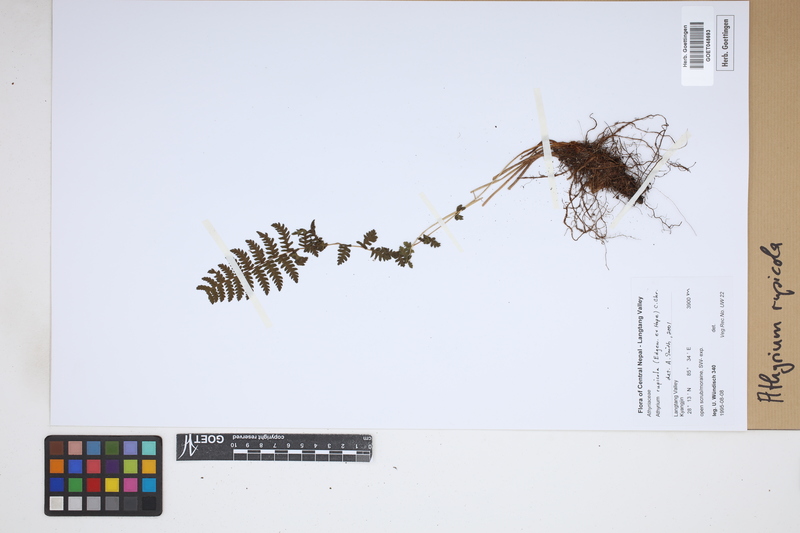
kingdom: Plantae
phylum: Tracheophyta
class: Polypodiopsida
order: Polypodiales
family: Athyriaceae
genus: Athyrium
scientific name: Athyrium rupicola
